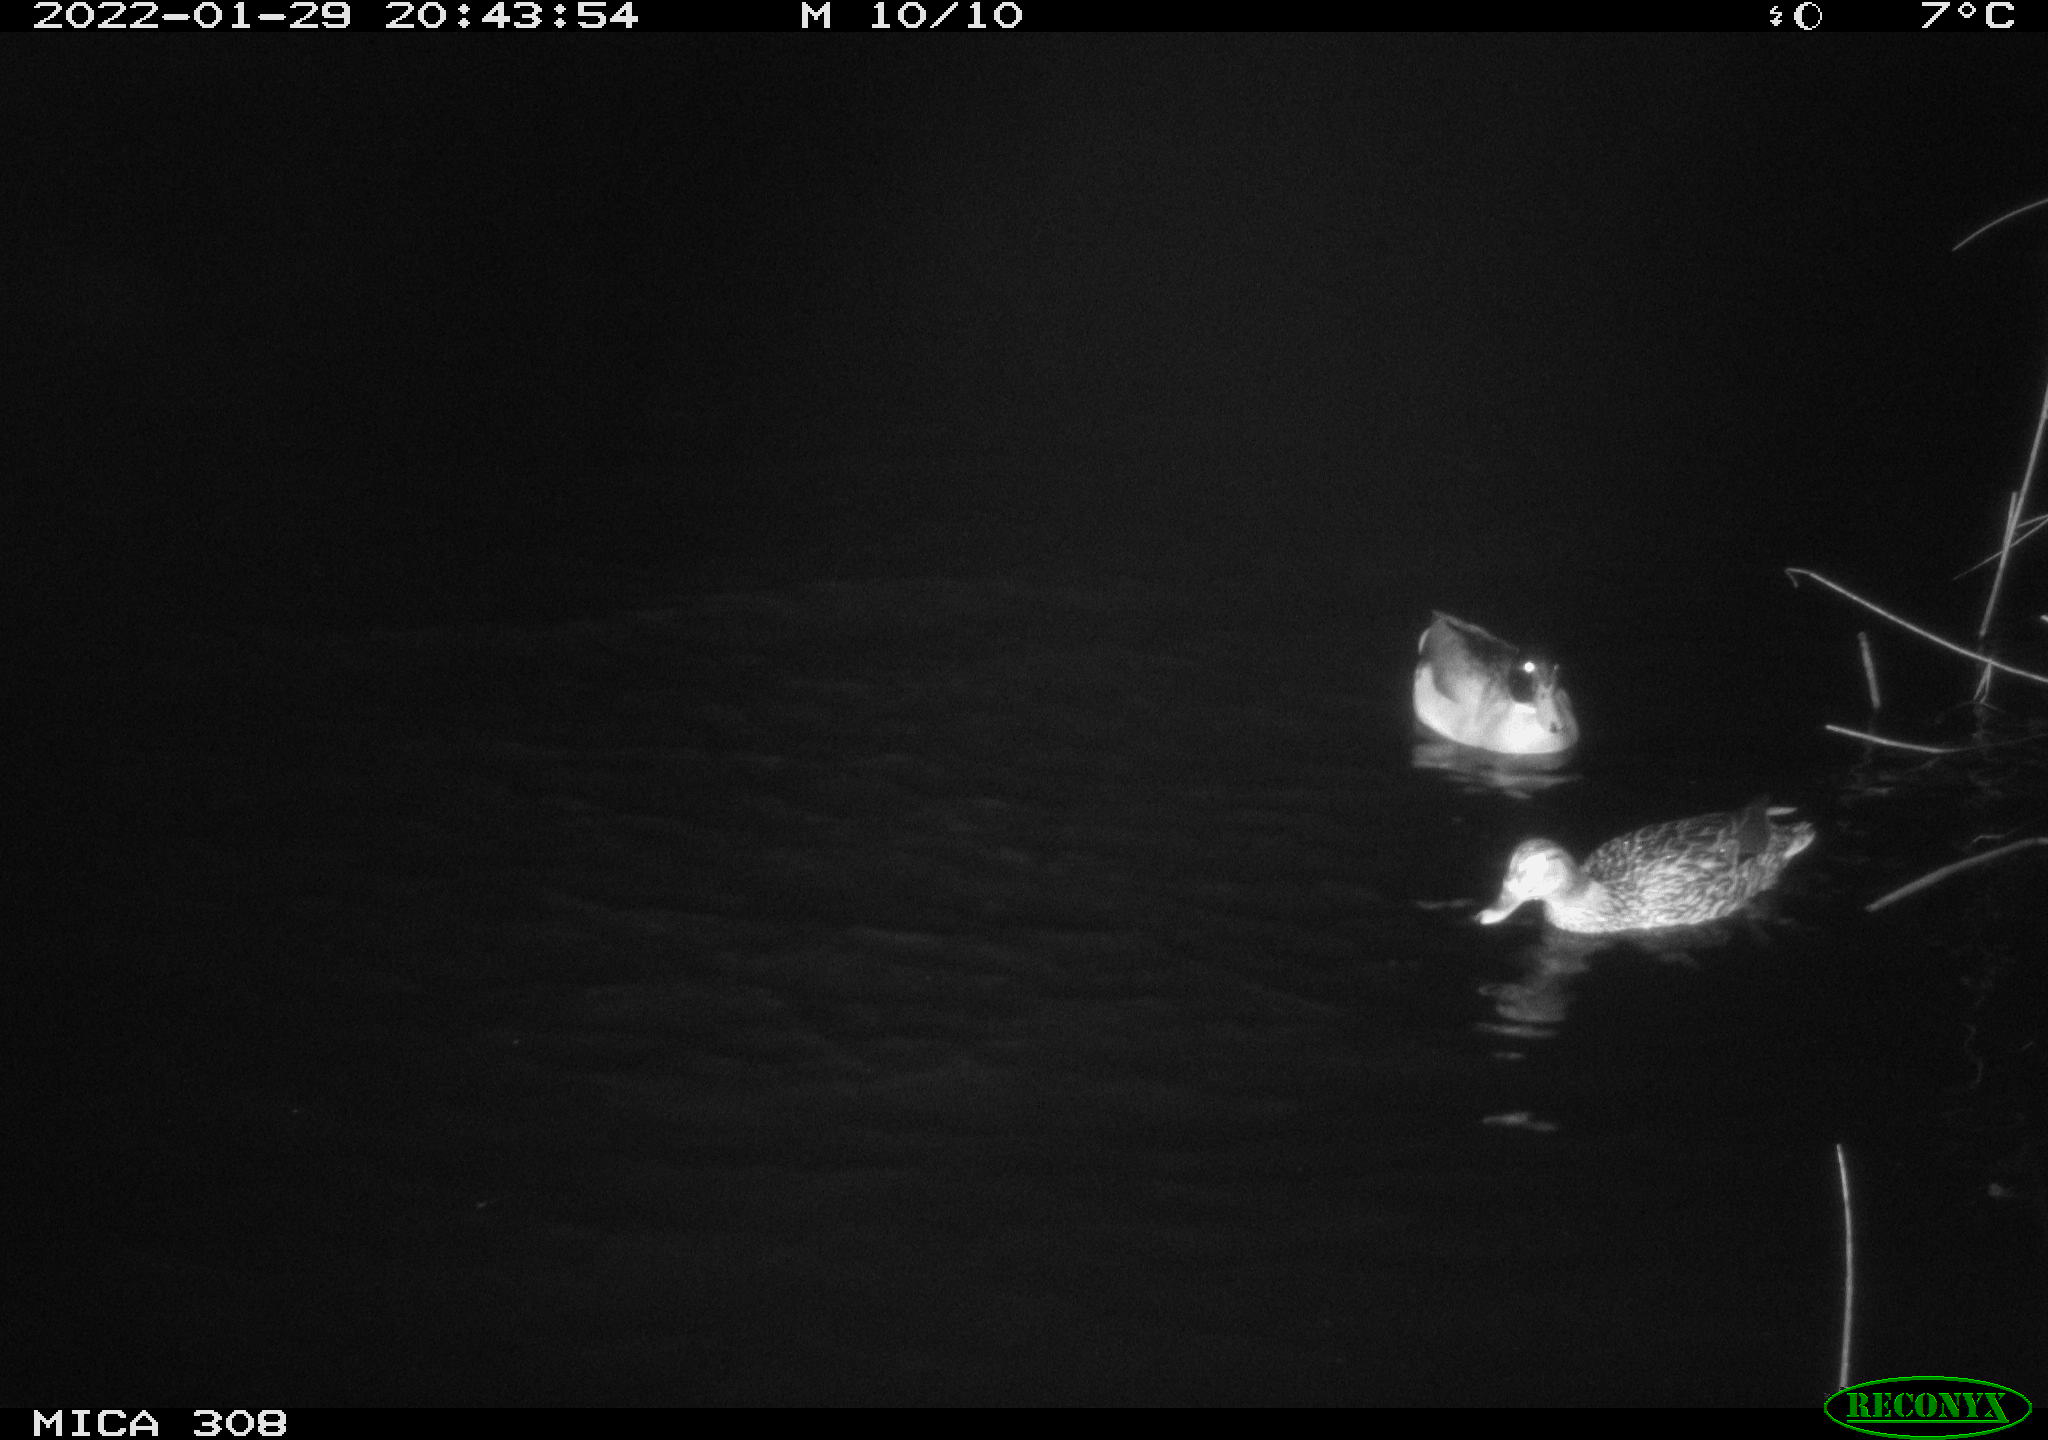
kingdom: Animalia
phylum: Chordata
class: Aves
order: Anseriformes
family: Anatidae
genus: Anas
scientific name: Anas
